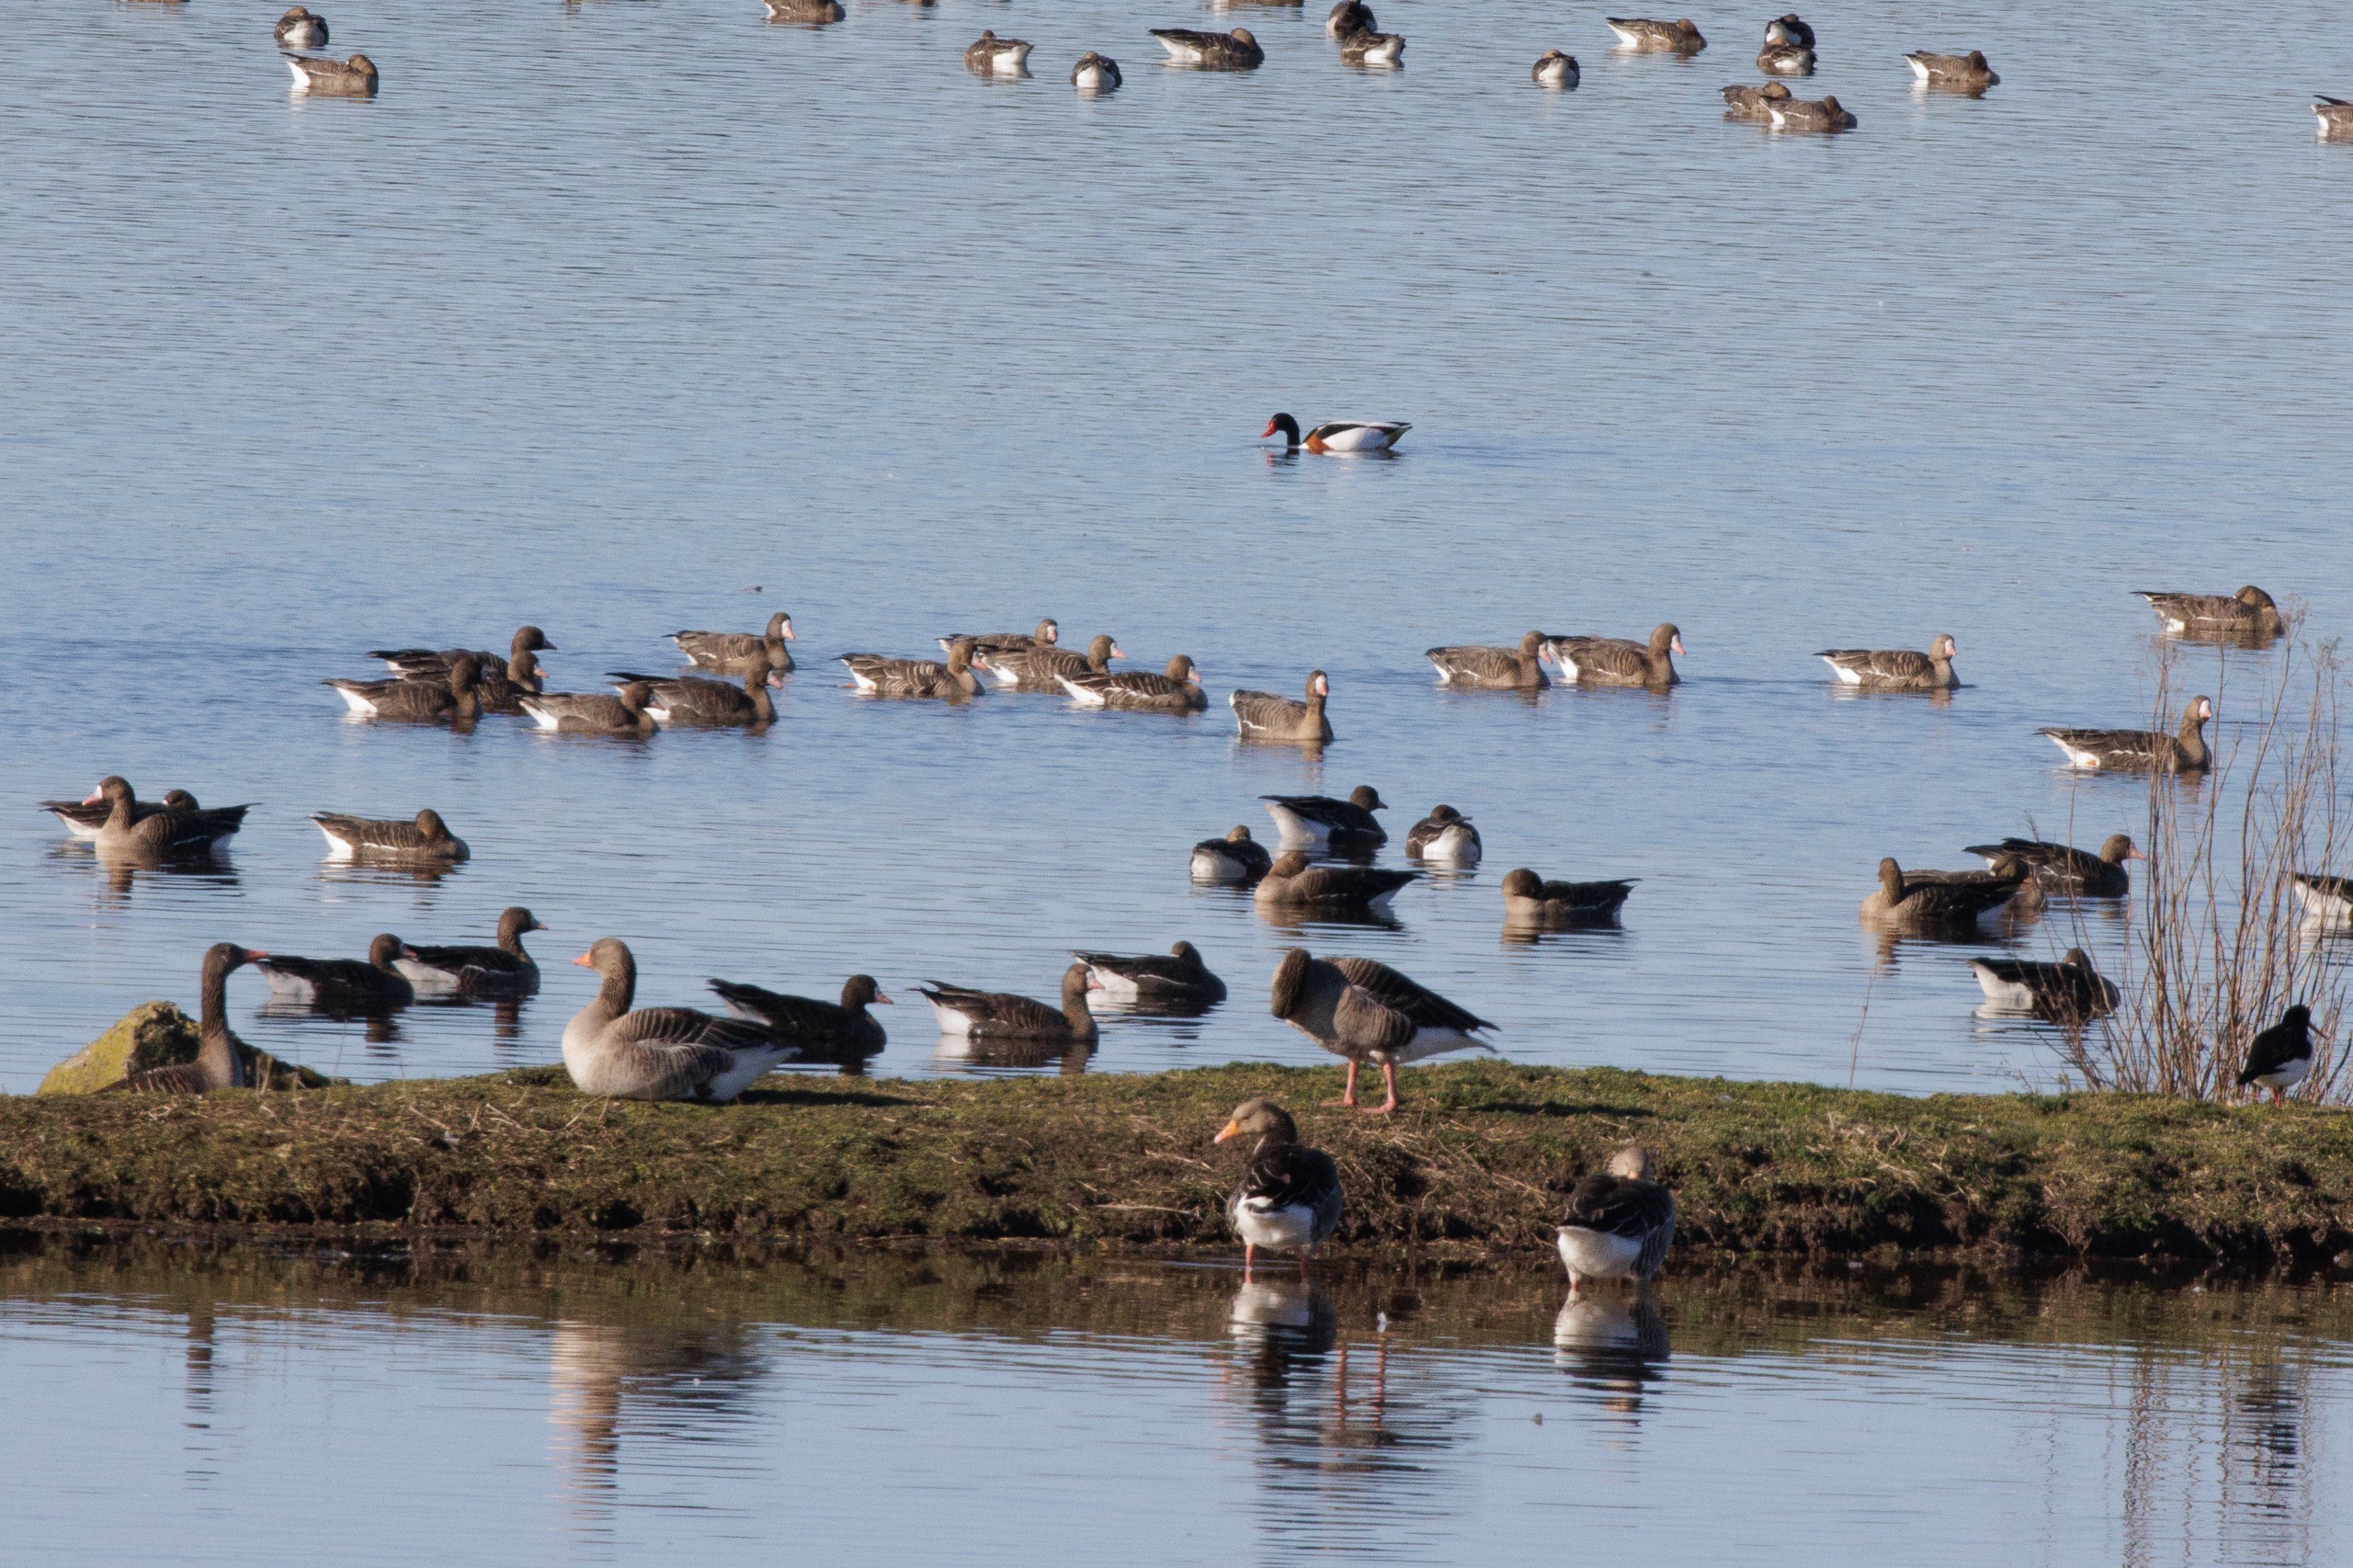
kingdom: Animalia
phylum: Chordata
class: Aves
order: Anseriformes
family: Anatidae
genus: Anser
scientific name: Anser albifrons
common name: Blisgås
